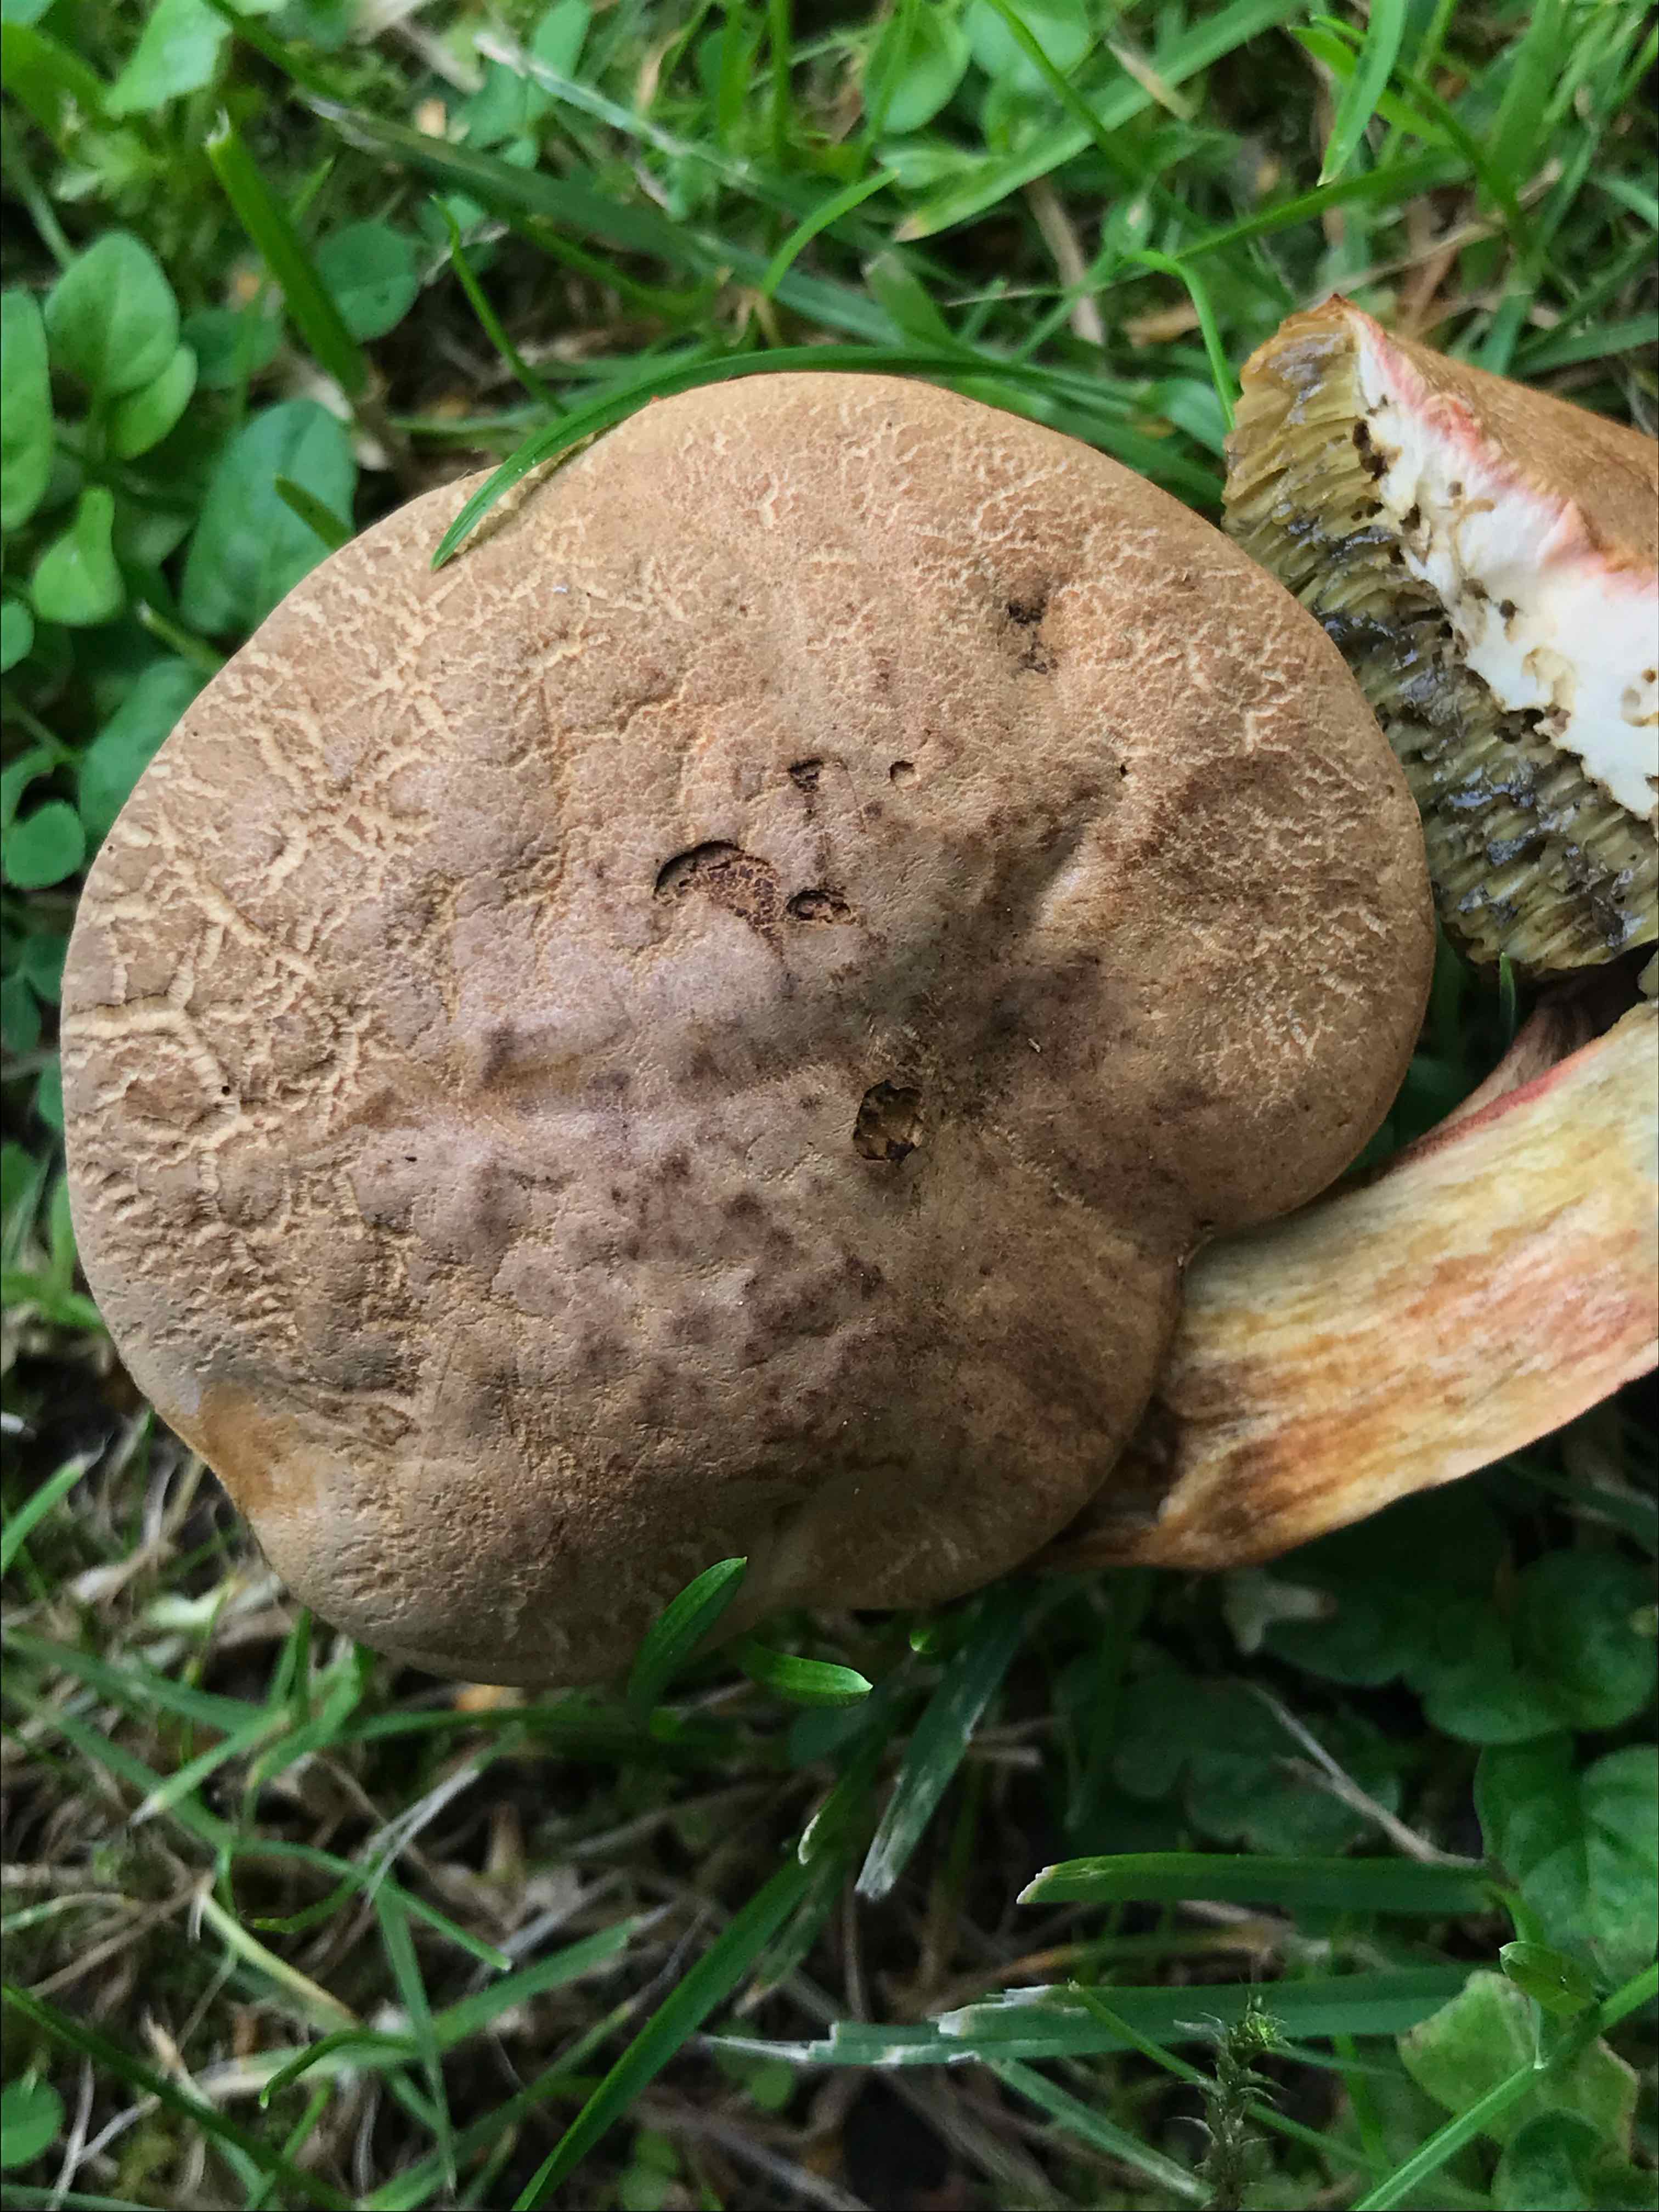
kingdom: Fungi
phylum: Basidiomycota
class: Agaricomycetes
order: Boletales
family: Boletaceae
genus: Hortiboletus
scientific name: Hortiboletus bubalinus
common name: aurora-rørhat
